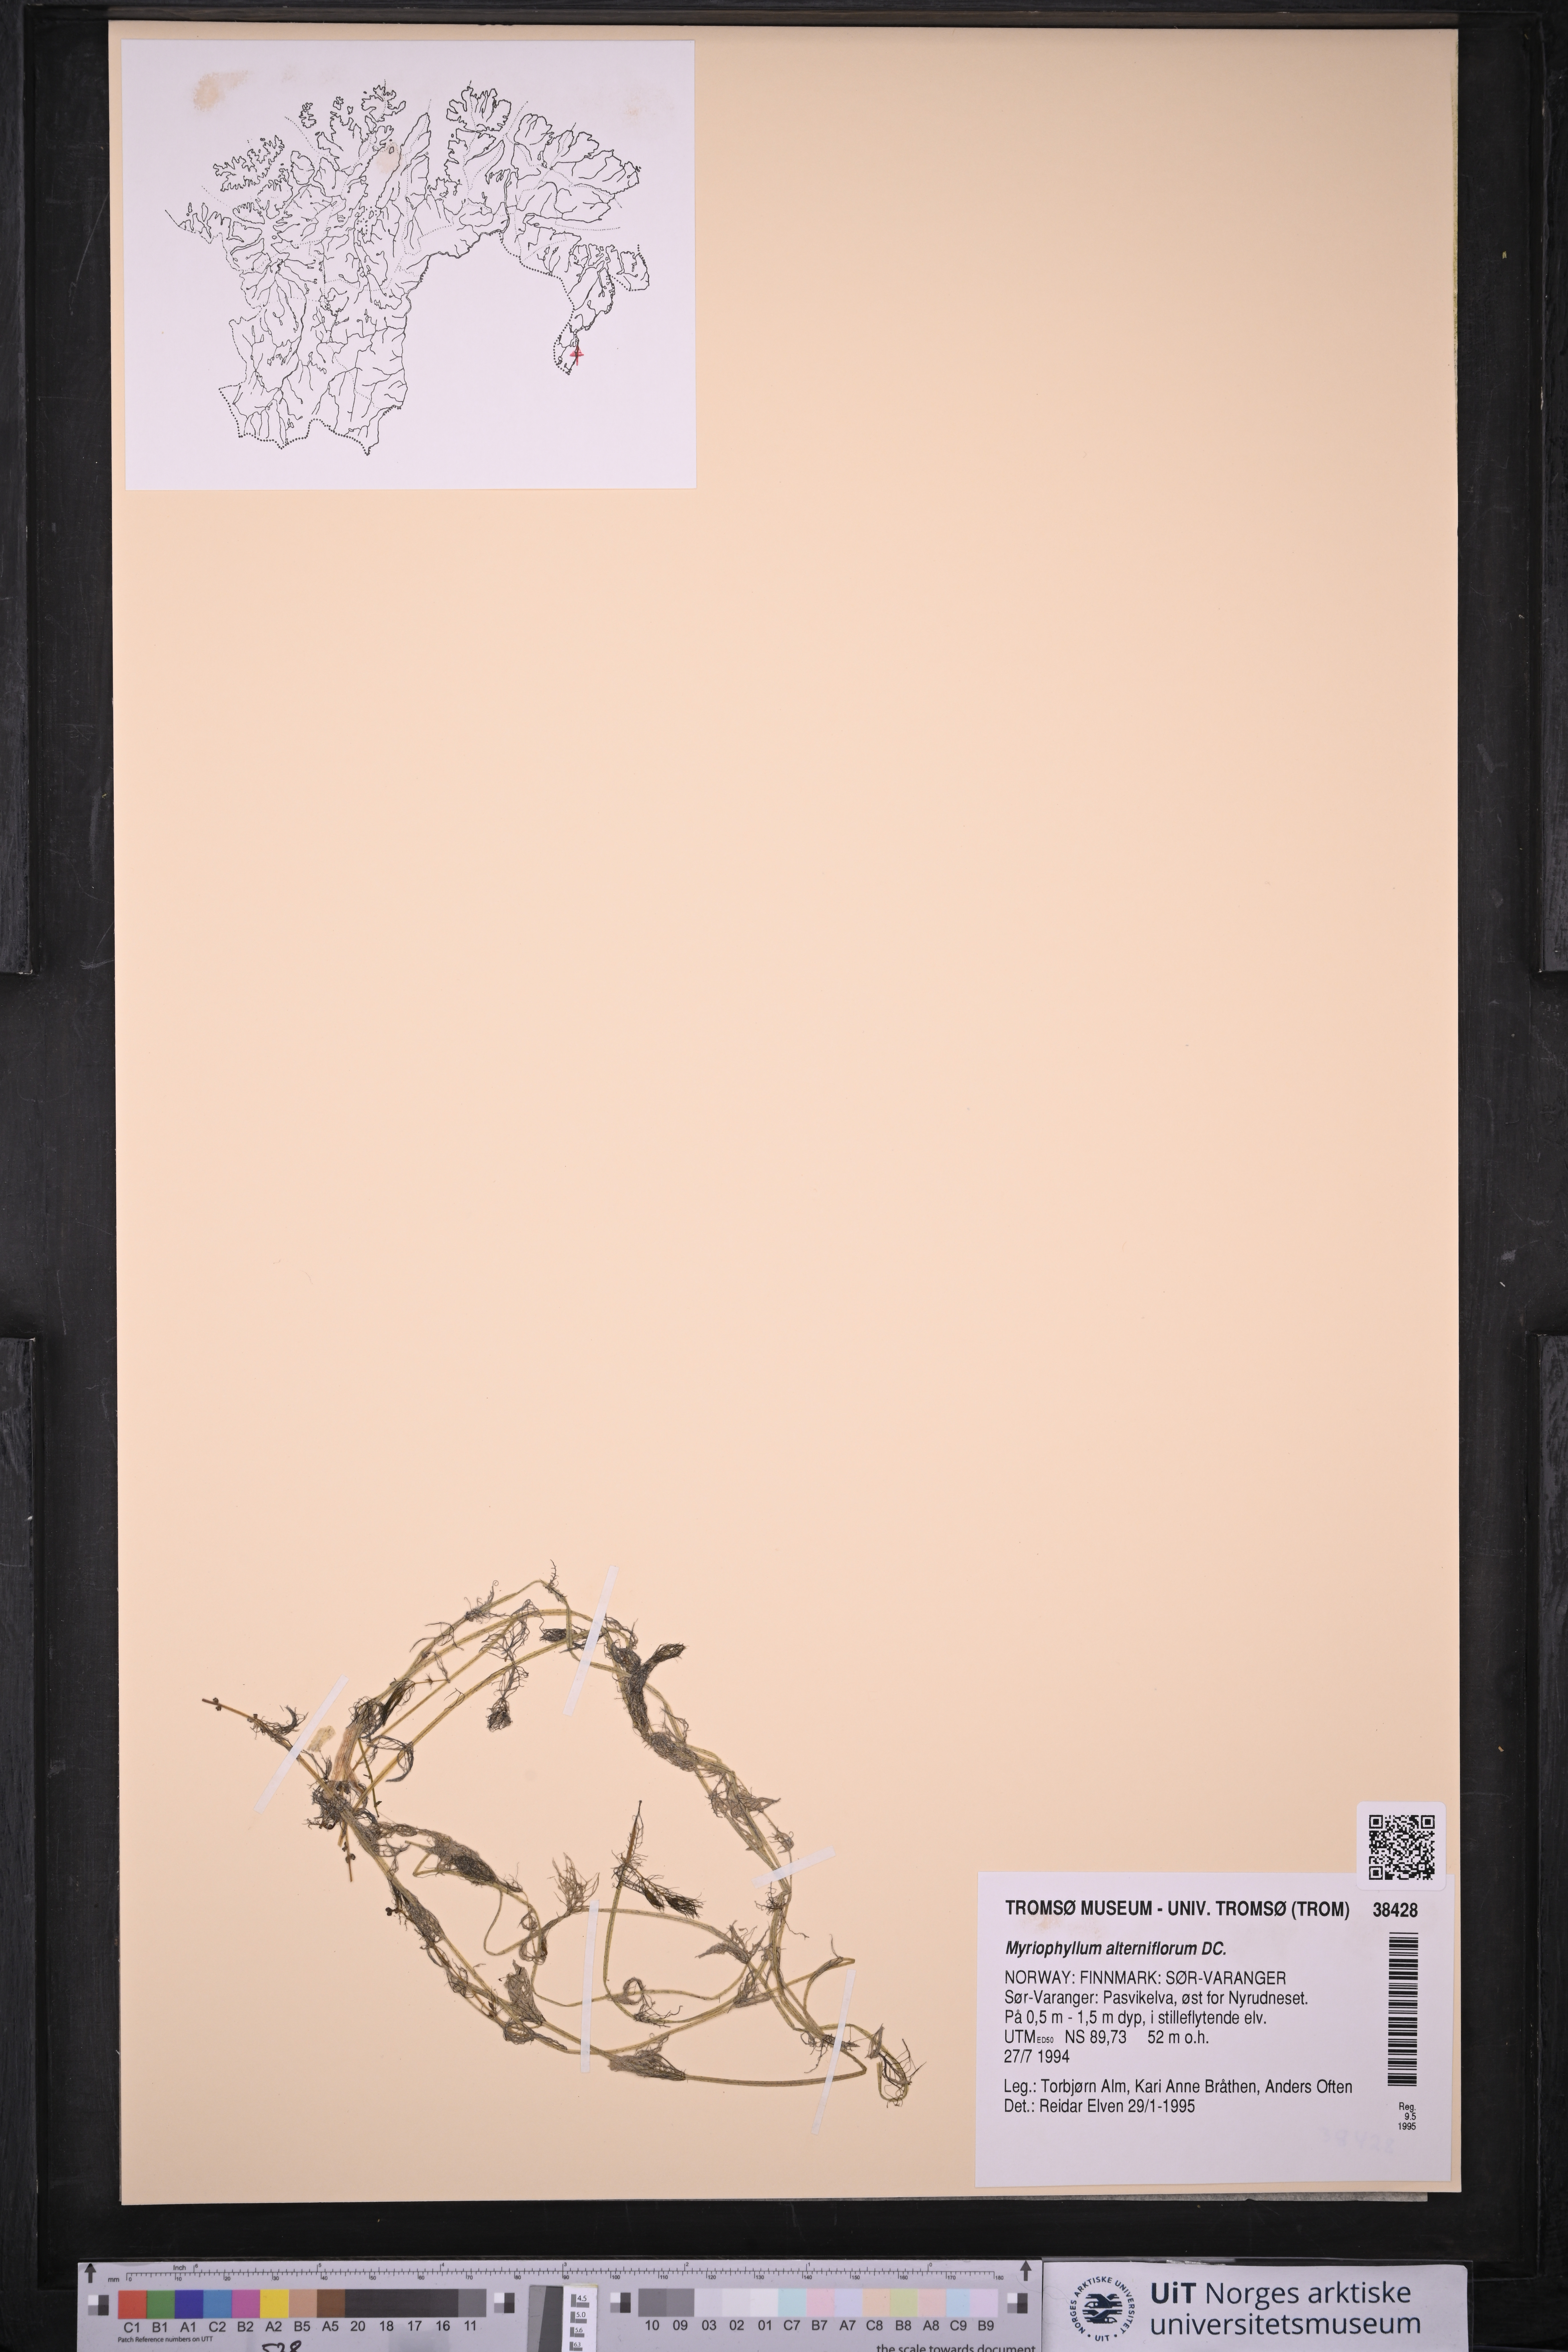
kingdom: Plantae
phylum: Tracheophyta
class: Magnoliopsida
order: Saxifragales
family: Haloragaceae
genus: Myriophyllum
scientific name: Myriophyllum alterniflorum
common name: Alternate water-milfoil
